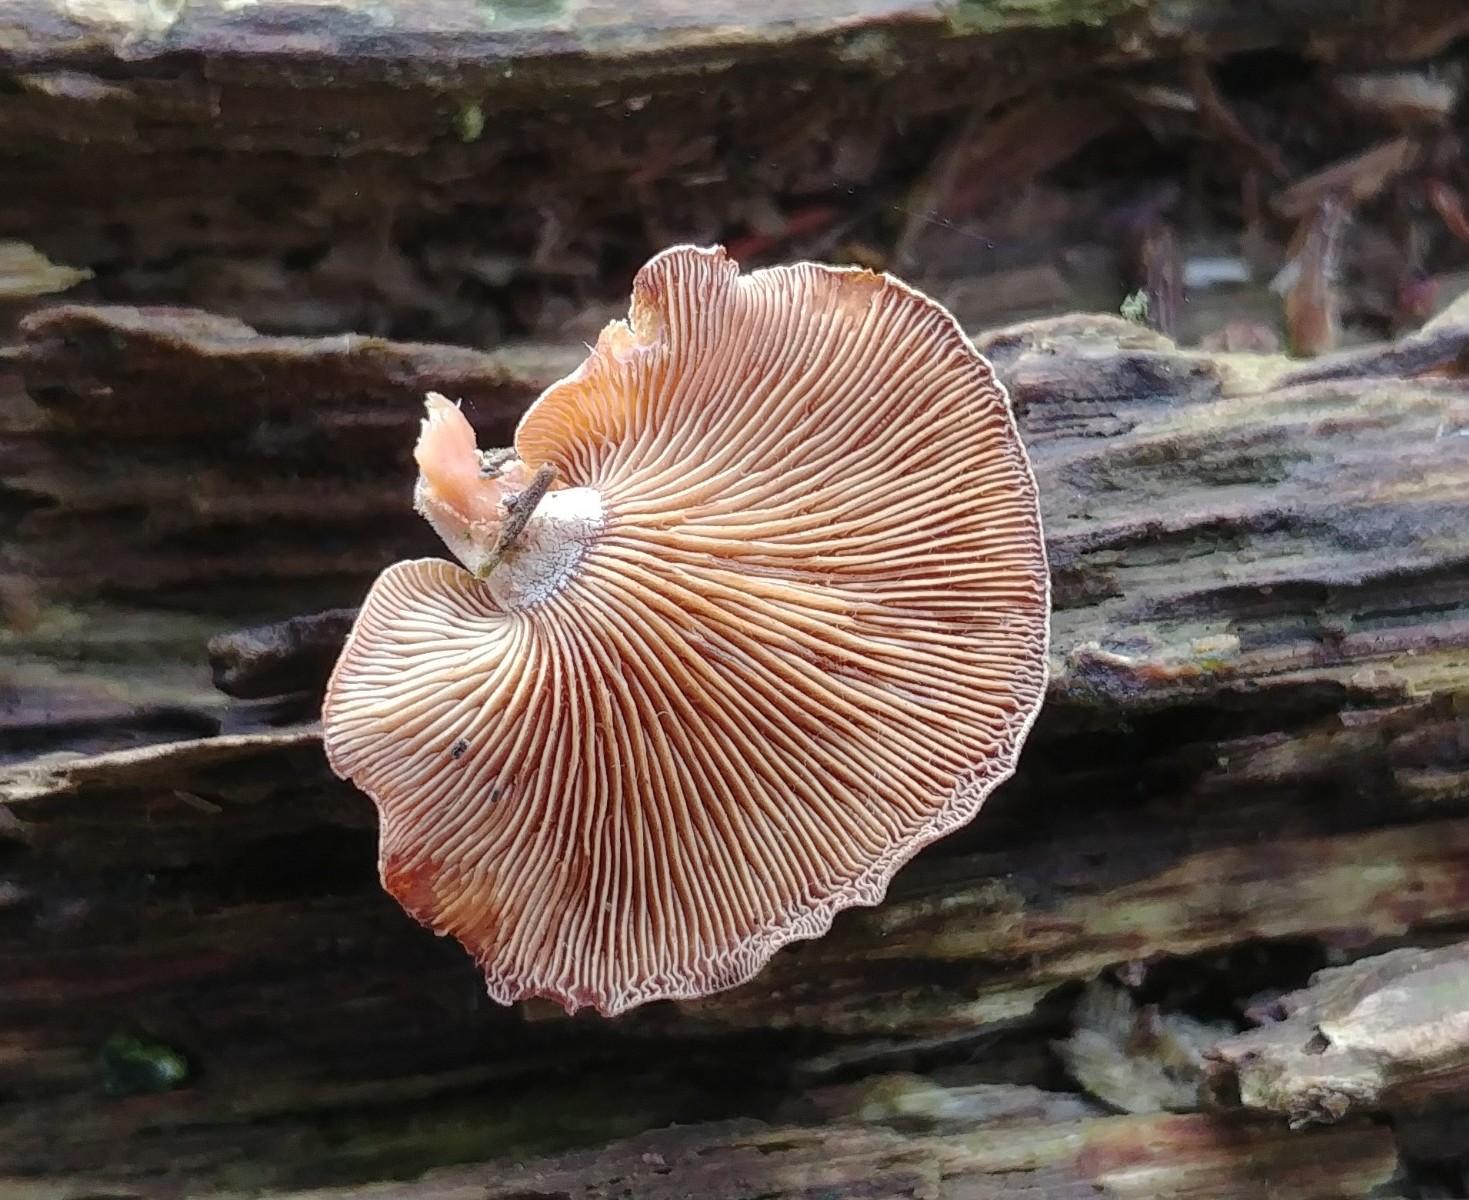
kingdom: Fungi
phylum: Basidiomycota
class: Agaricomycetes
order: Agaricales
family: Mycenaceae
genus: Panellus
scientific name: Panellus stipticus
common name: kliddet epaulethat
